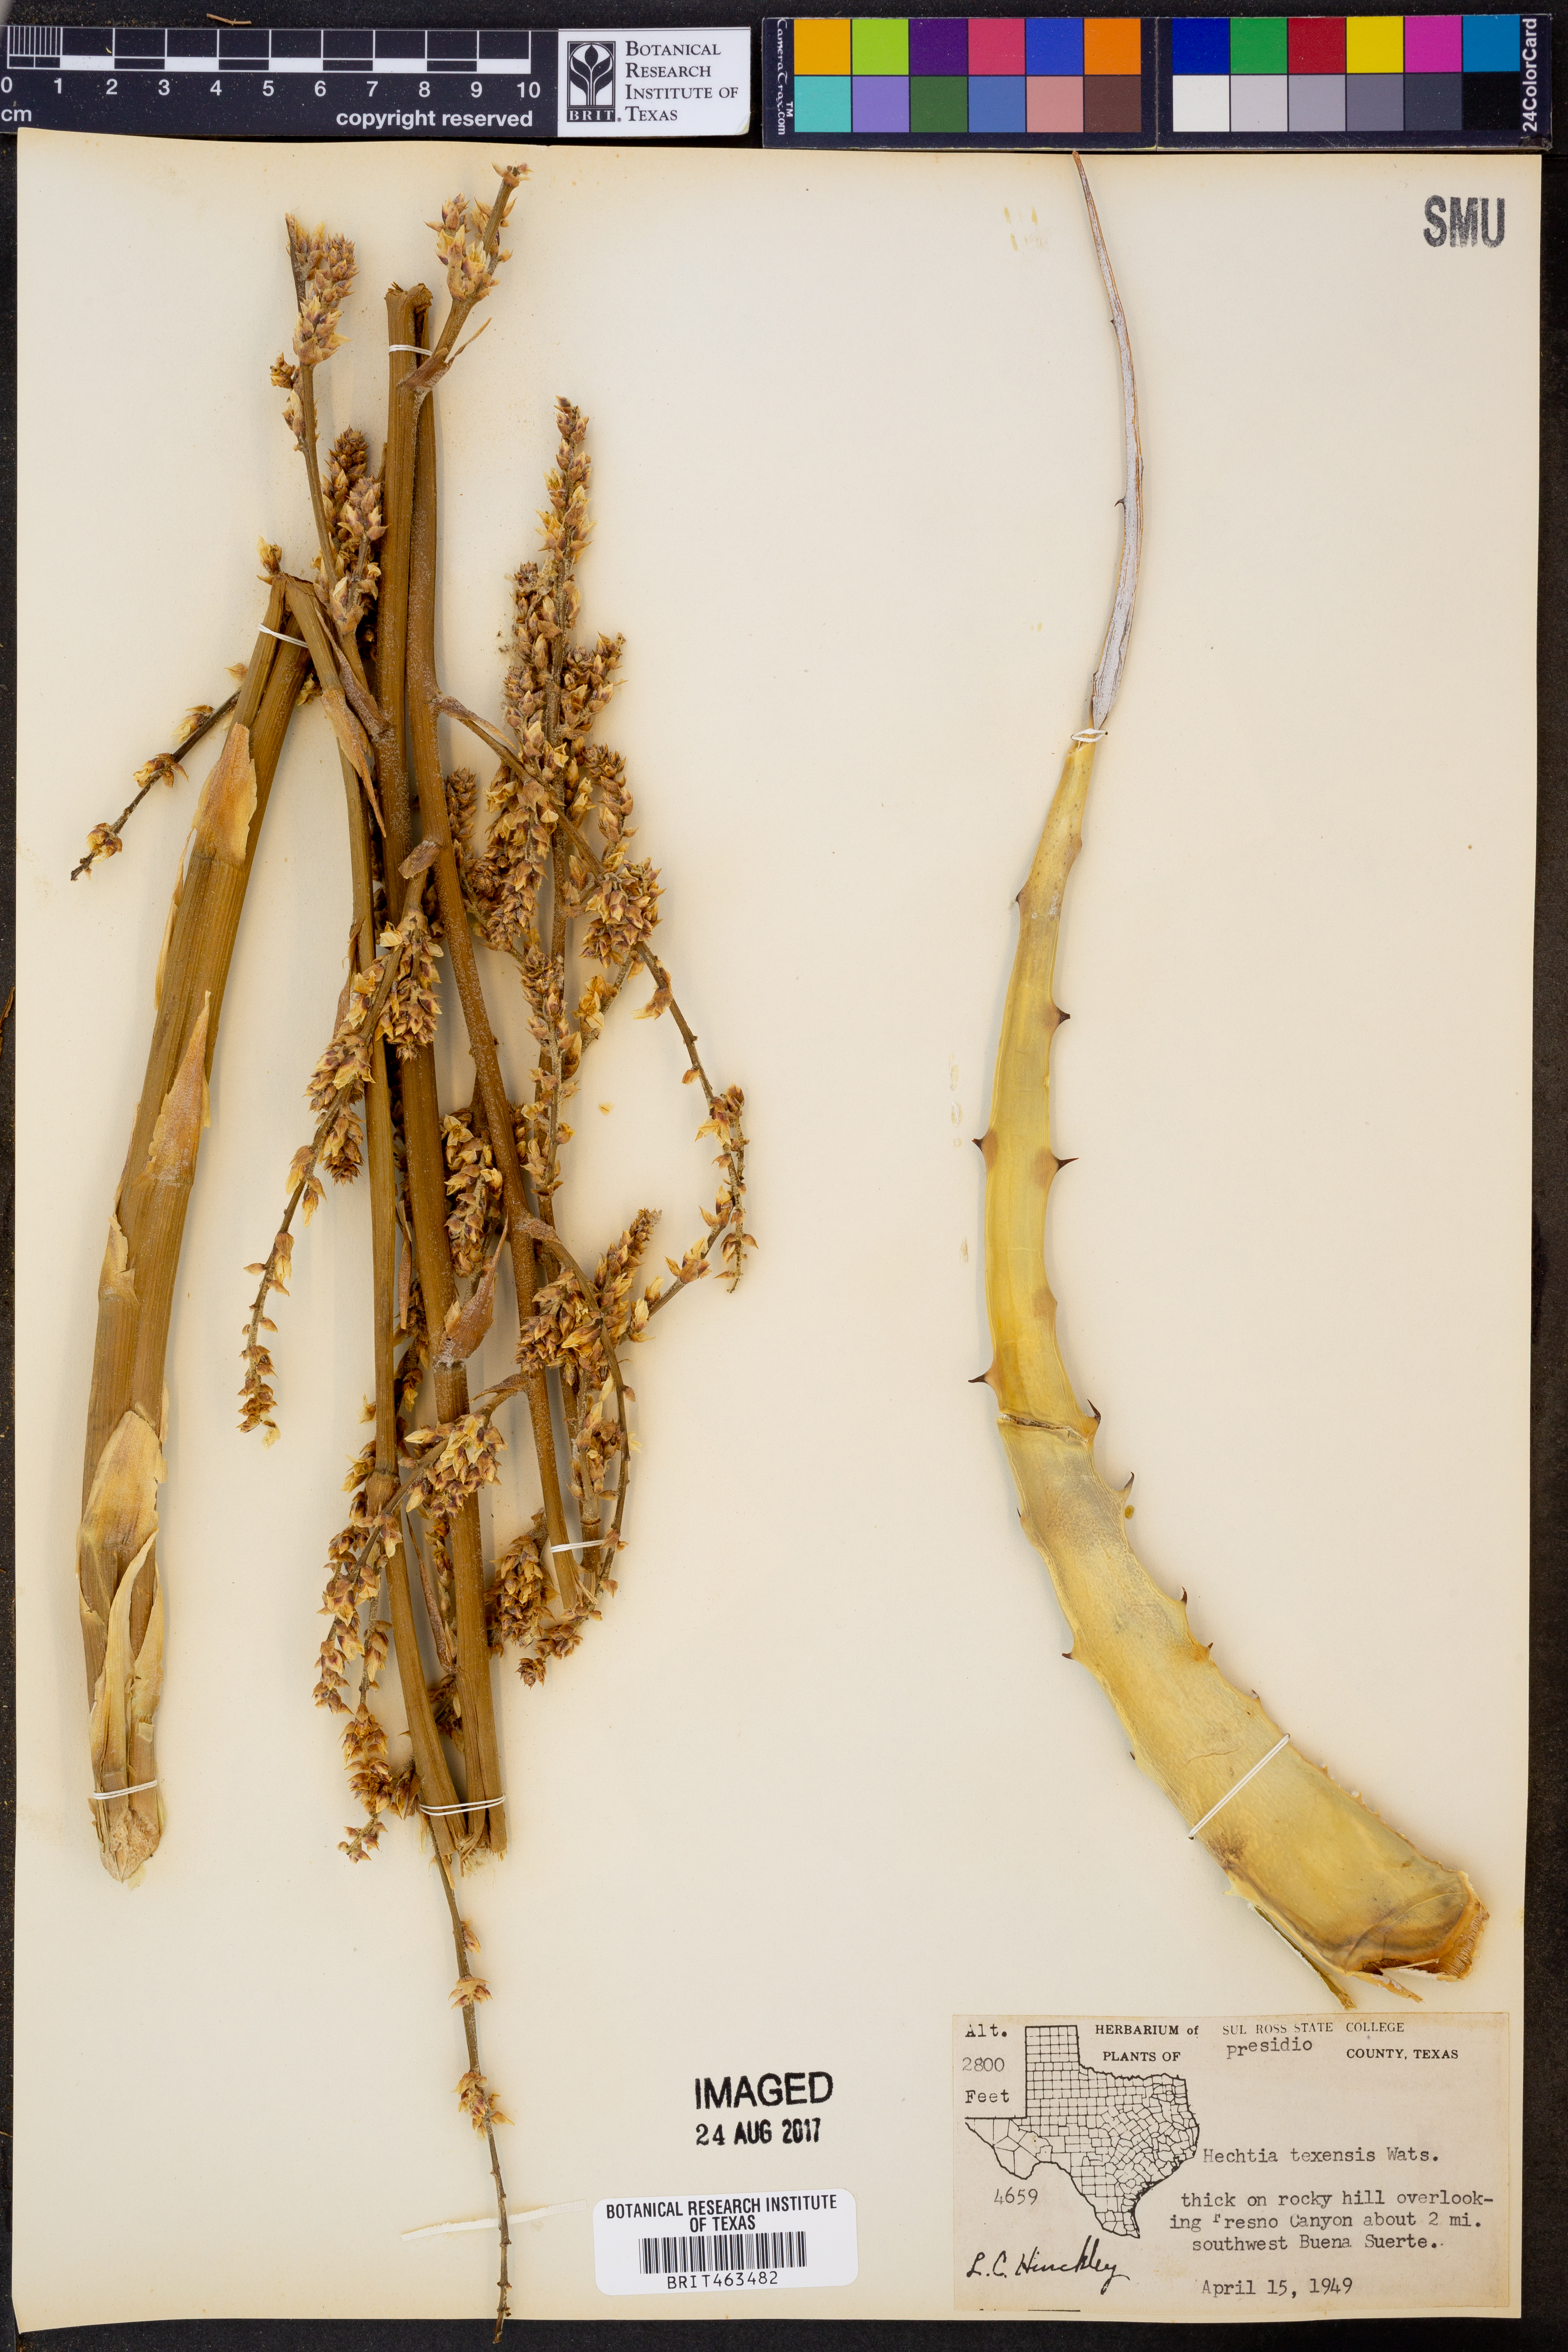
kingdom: Plantae
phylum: Tracheophyta
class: Liliopsida
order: Poales
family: Bromeliaceae
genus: Hechtia
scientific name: Hechtia texensis
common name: False agave
